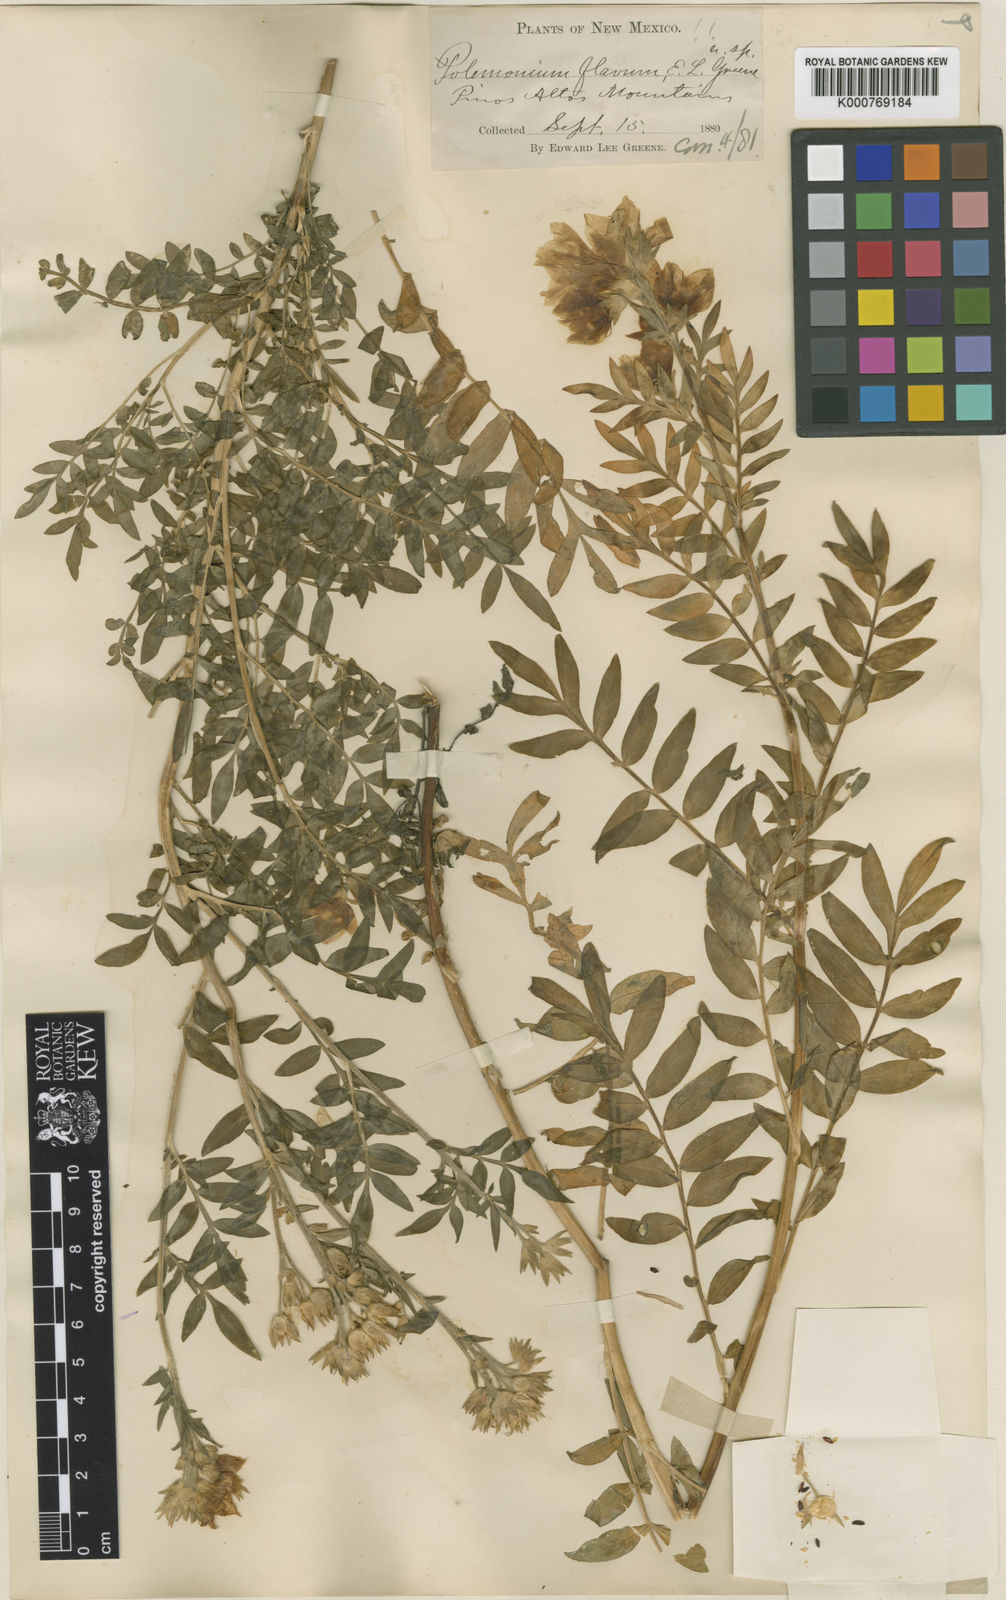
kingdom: Plantae
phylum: Tracheophyta
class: Magnoliopsida
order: Ericales
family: Polemoniaceae
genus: Polemonium
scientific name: Polemonium foliosissimum
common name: Leafy jacob's-ladder
